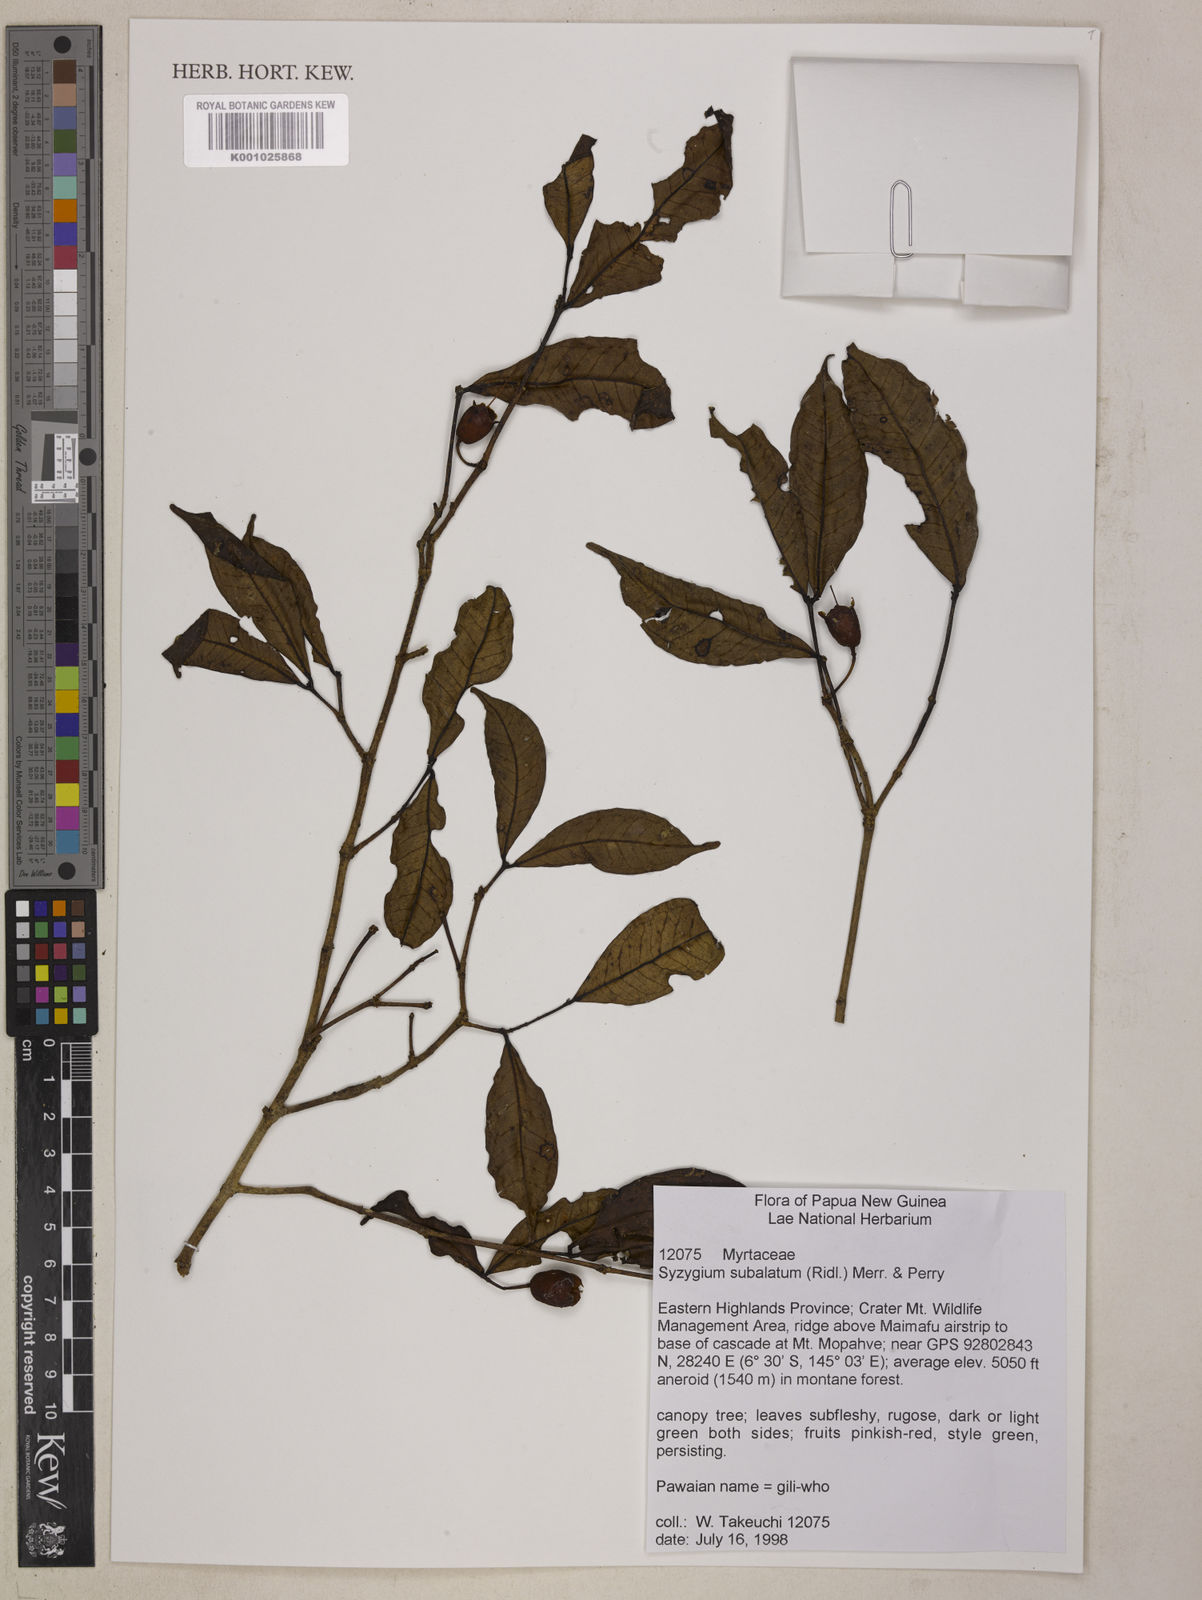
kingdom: Plantae
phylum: Tracheophyta
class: Magnoliopsida
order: Myrtales
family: Myrtaceae
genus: Syzygium
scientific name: Syzygium subalatum
